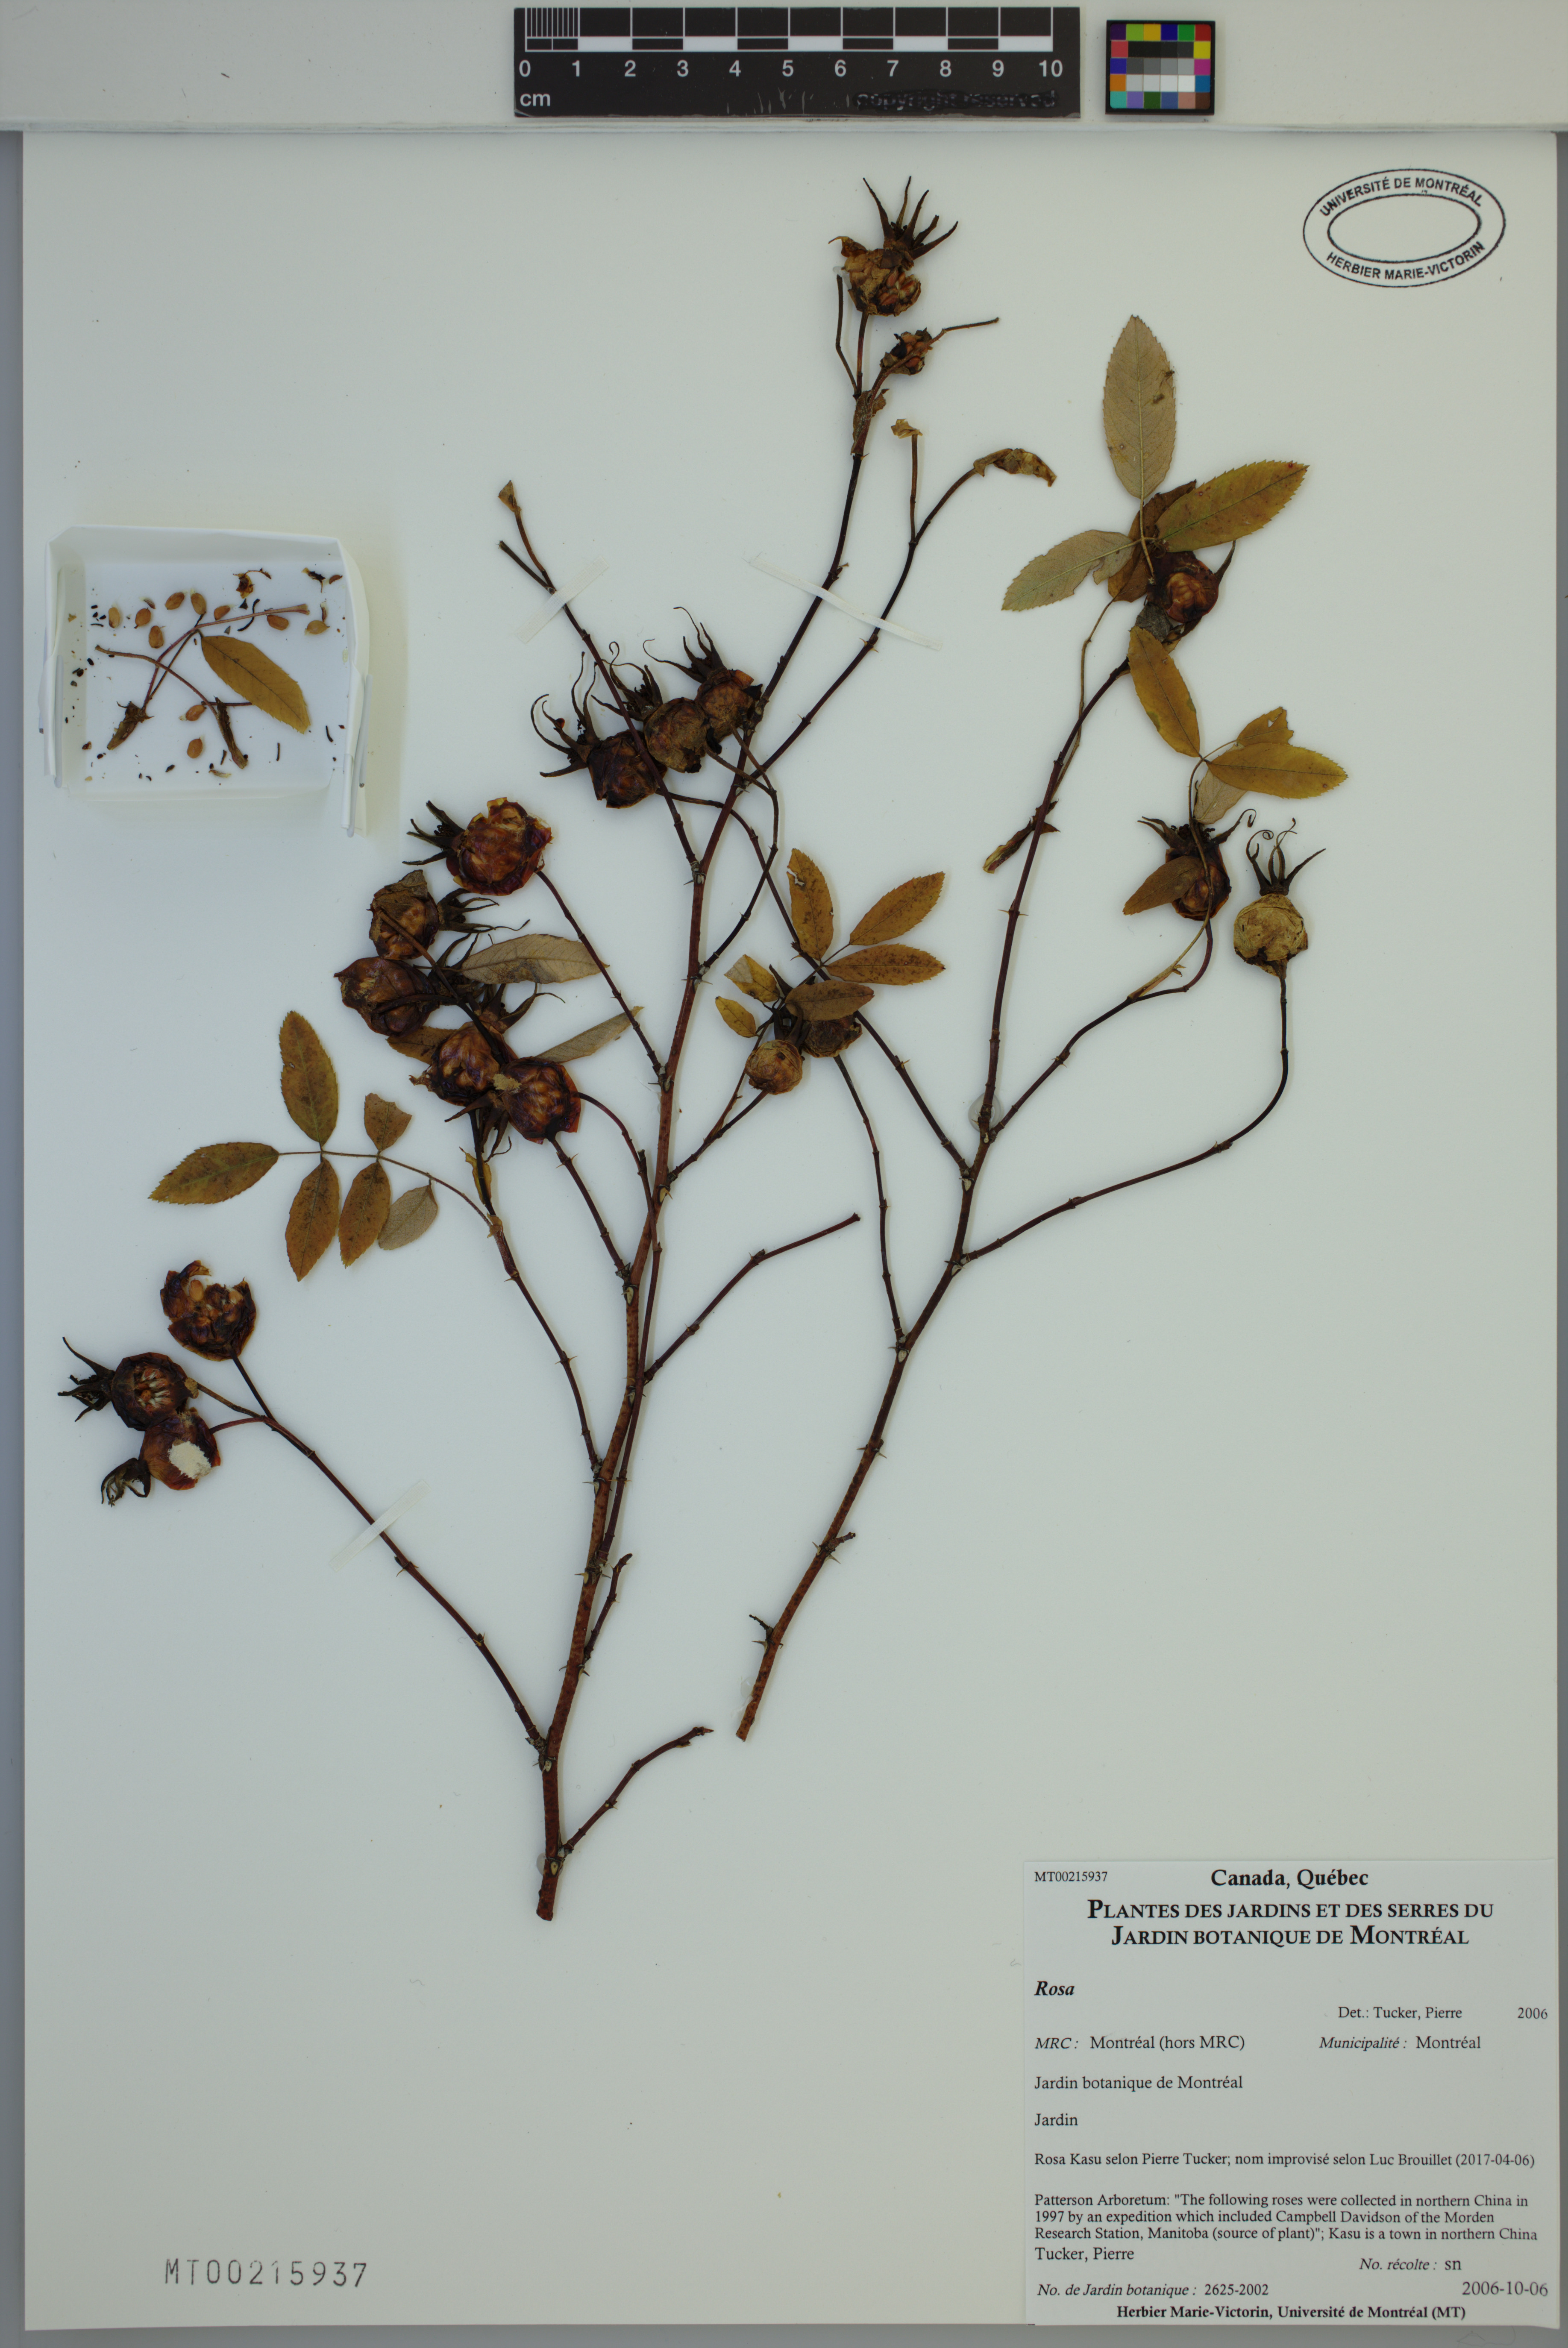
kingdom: Plantae
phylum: Tracheophyta
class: Magnoliopsida
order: Rosales
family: Rosaceae
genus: Rosa
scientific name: Rosa
